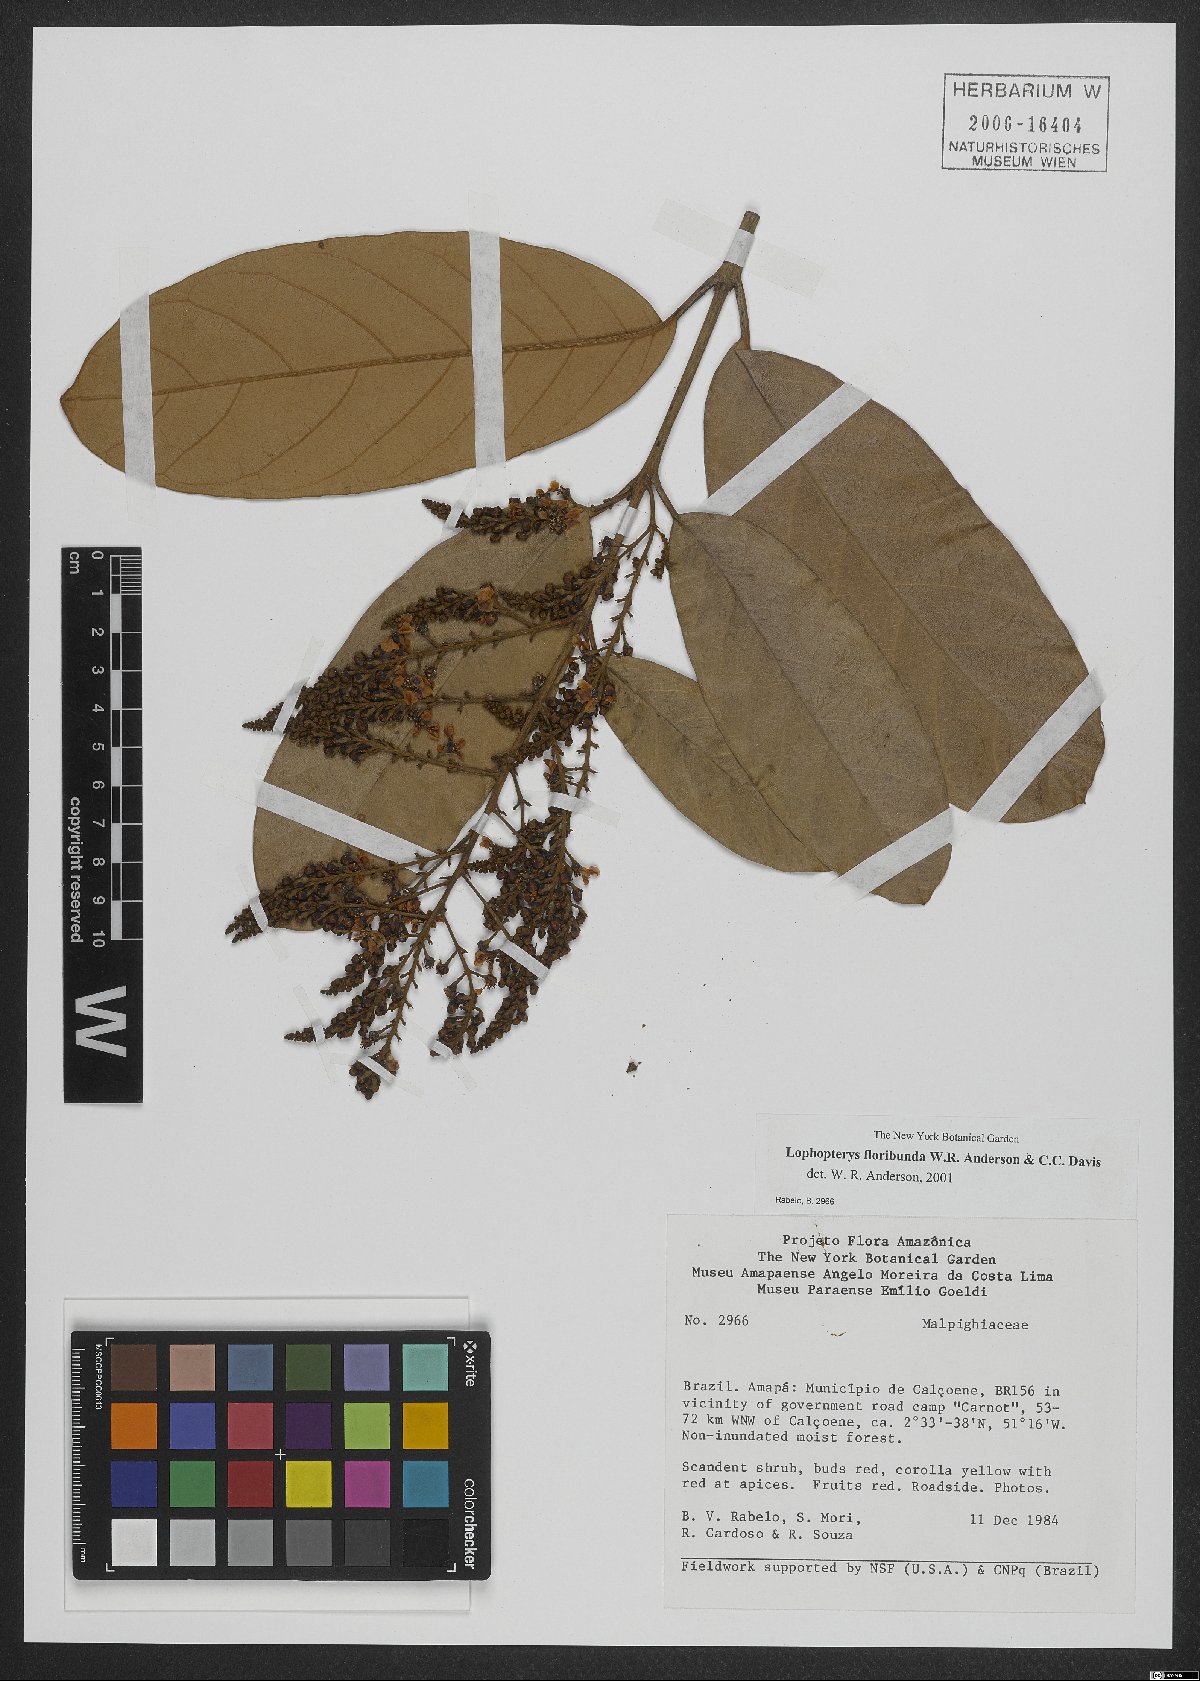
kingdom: Plantae
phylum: Tracheophyta
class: Magnoliopsida
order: Malpighiales
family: Malpighiaceae
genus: Lophopterys
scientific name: Lophopterys floribunda
